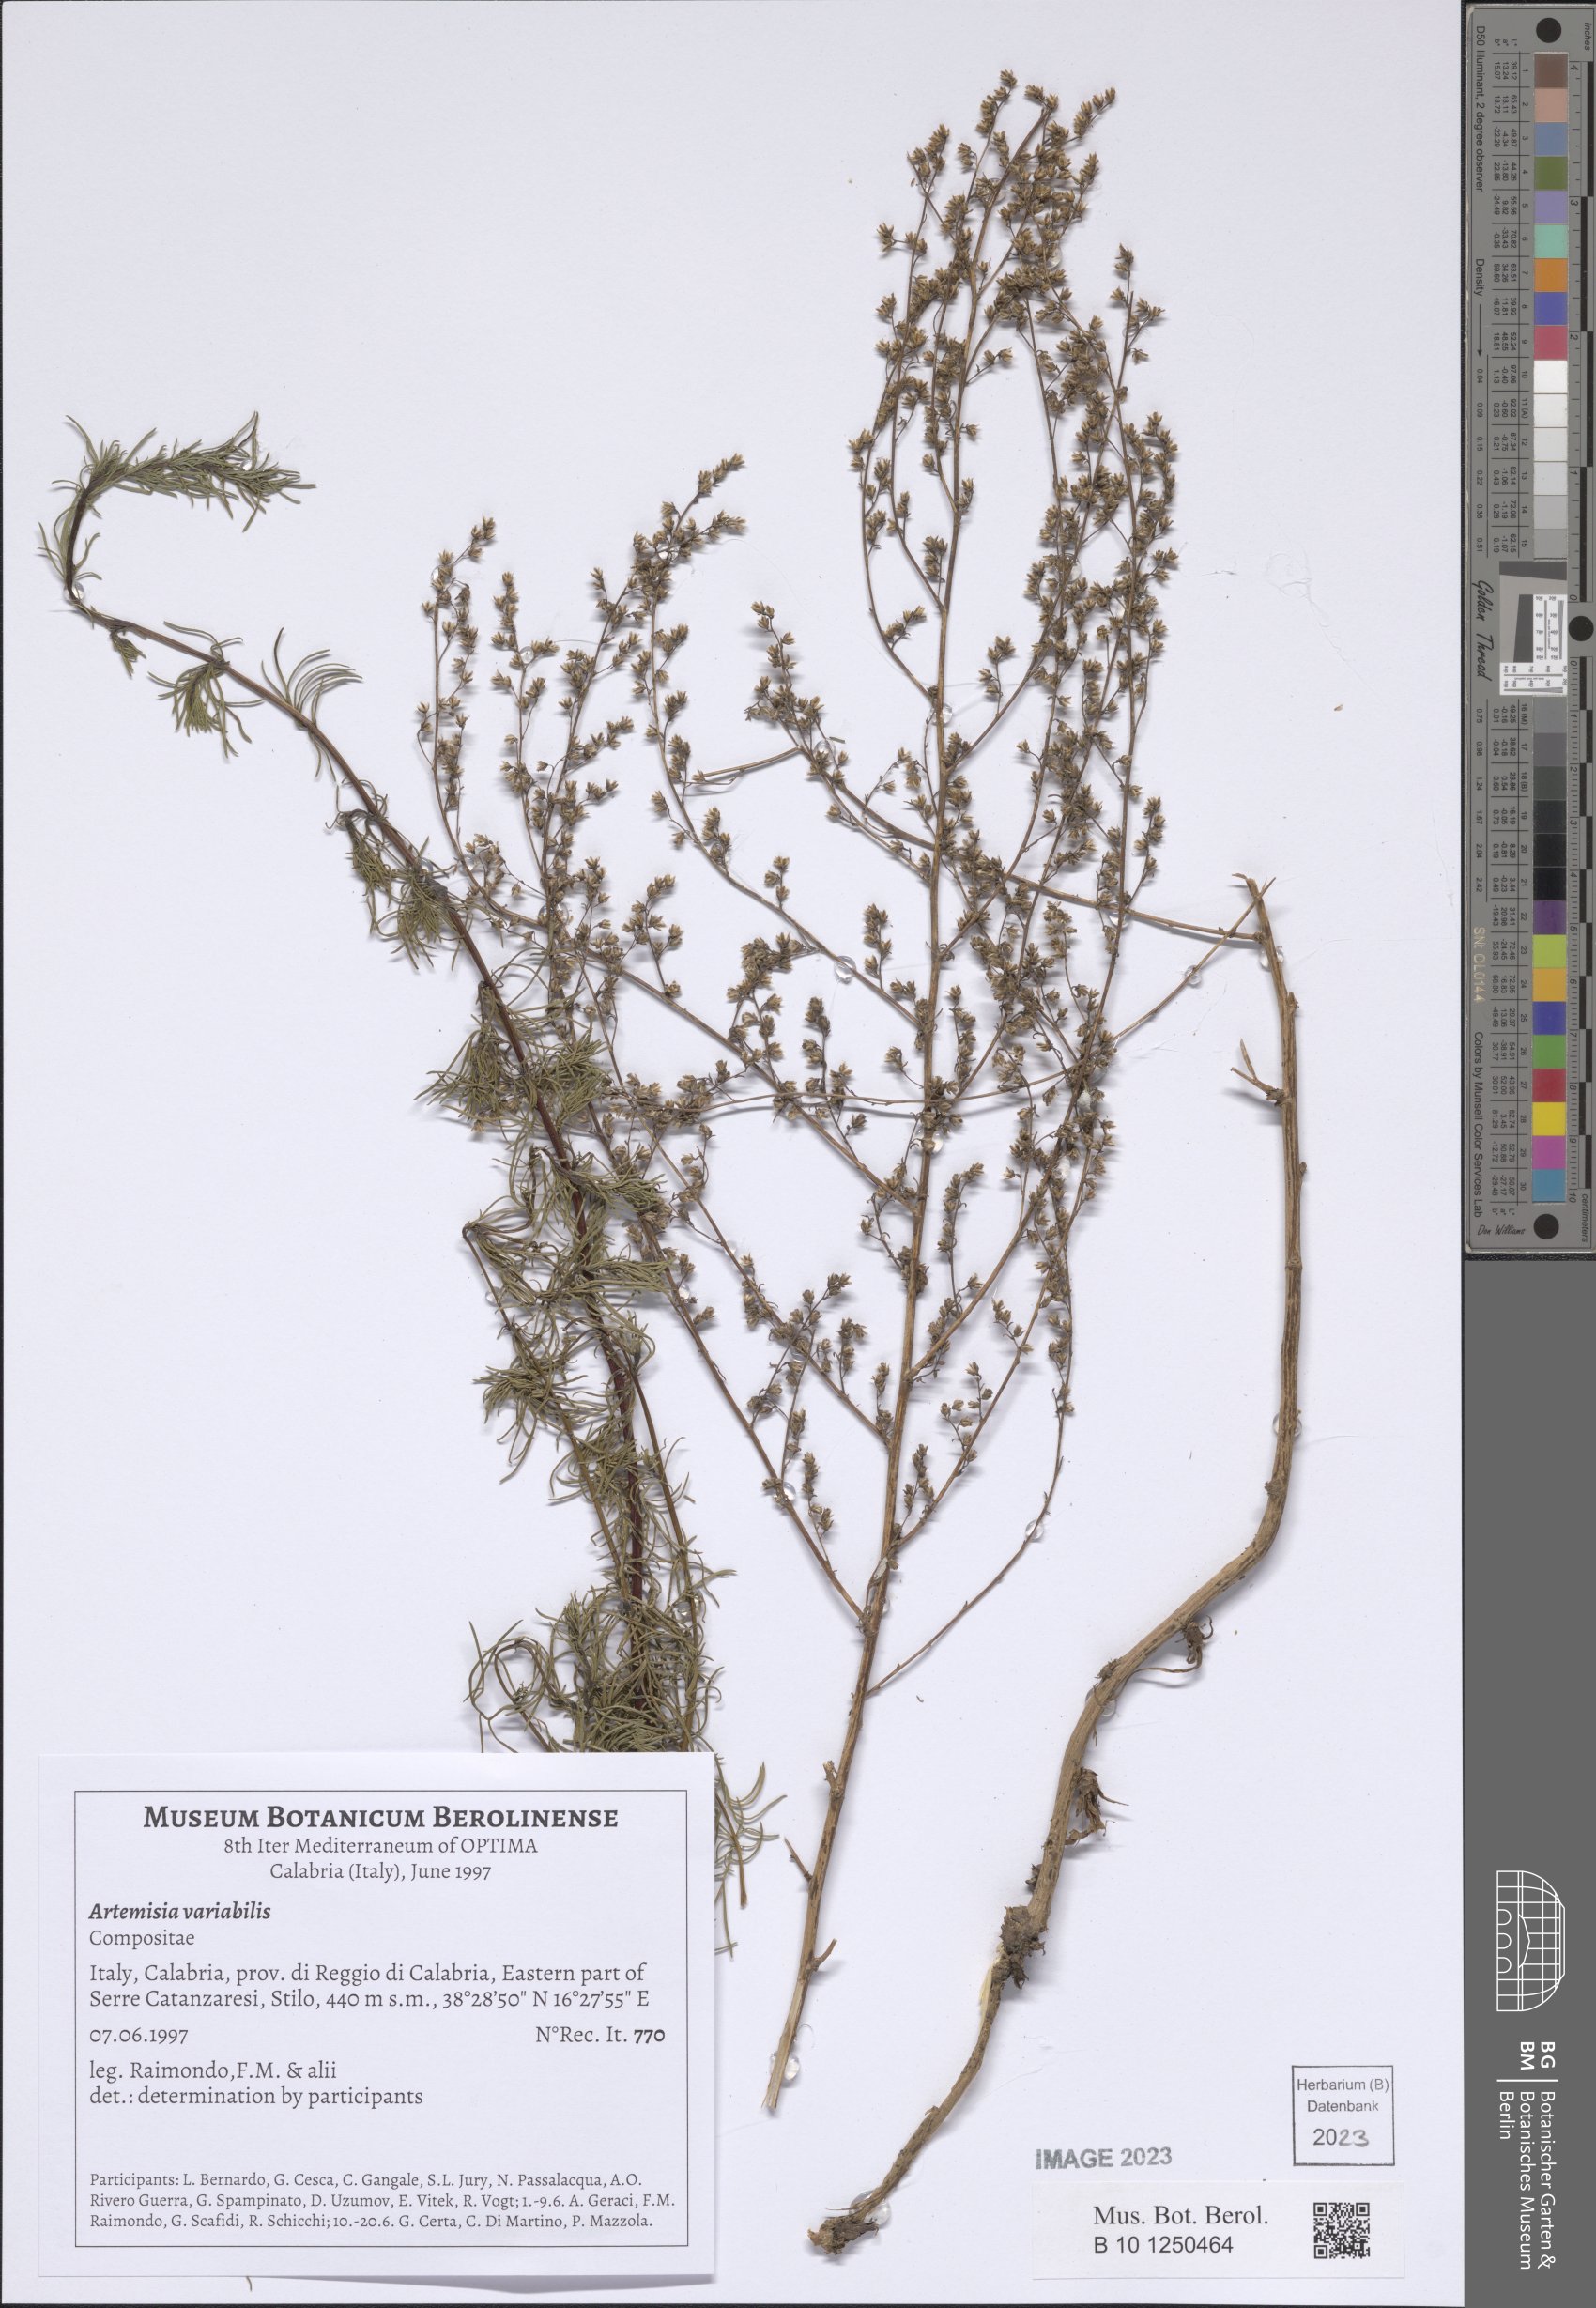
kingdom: Plantae
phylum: Tracheophyta
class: Magnoliopsida
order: Asterales
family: Asteraceae
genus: Artemisia
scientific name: Artemisia campestris
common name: Field wormwood
